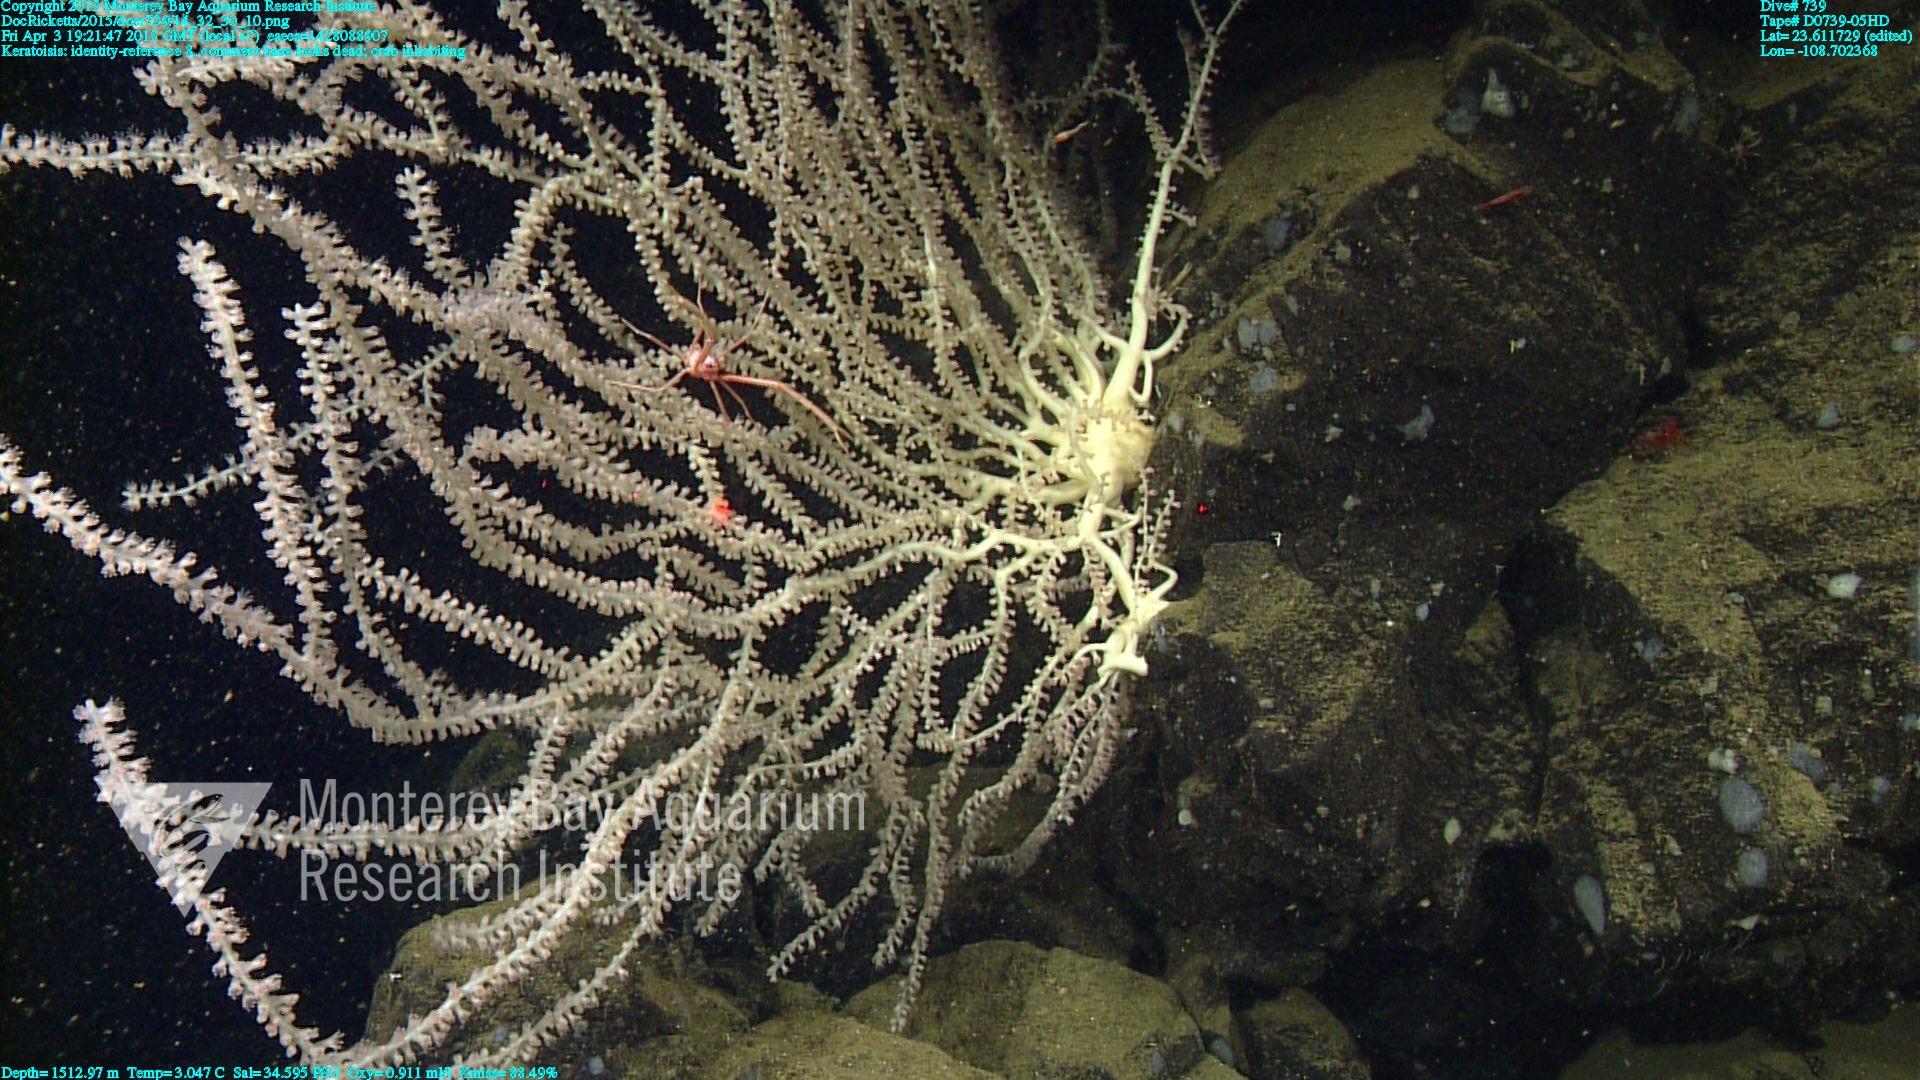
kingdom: Animalia
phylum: Cnidaria
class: Anthozoa
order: Scleralcyonacea
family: Keratoisididae
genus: Keratoisis
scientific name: Keratoisis
